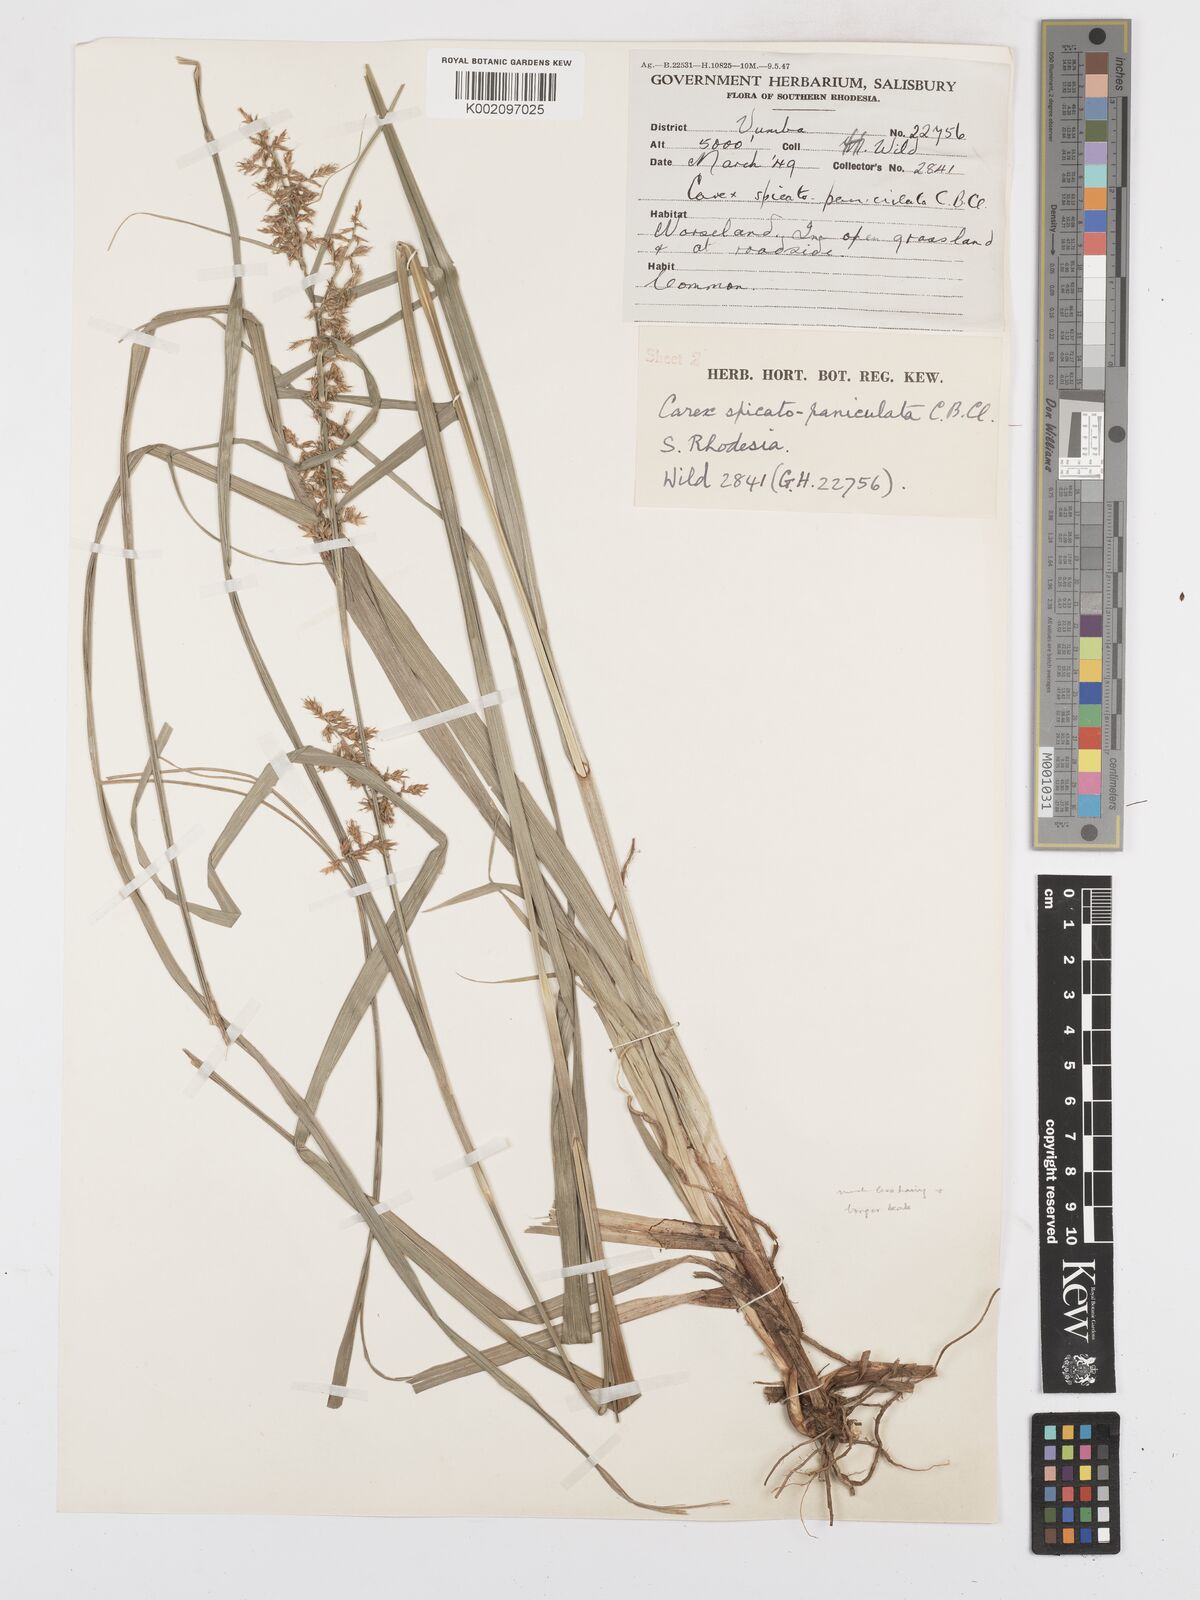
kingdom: Plantae
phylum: Tracheophyta
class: Liliopsida
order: Poales
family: Cyperaceae
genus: Carex
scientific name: Carex spicatopaniculata
